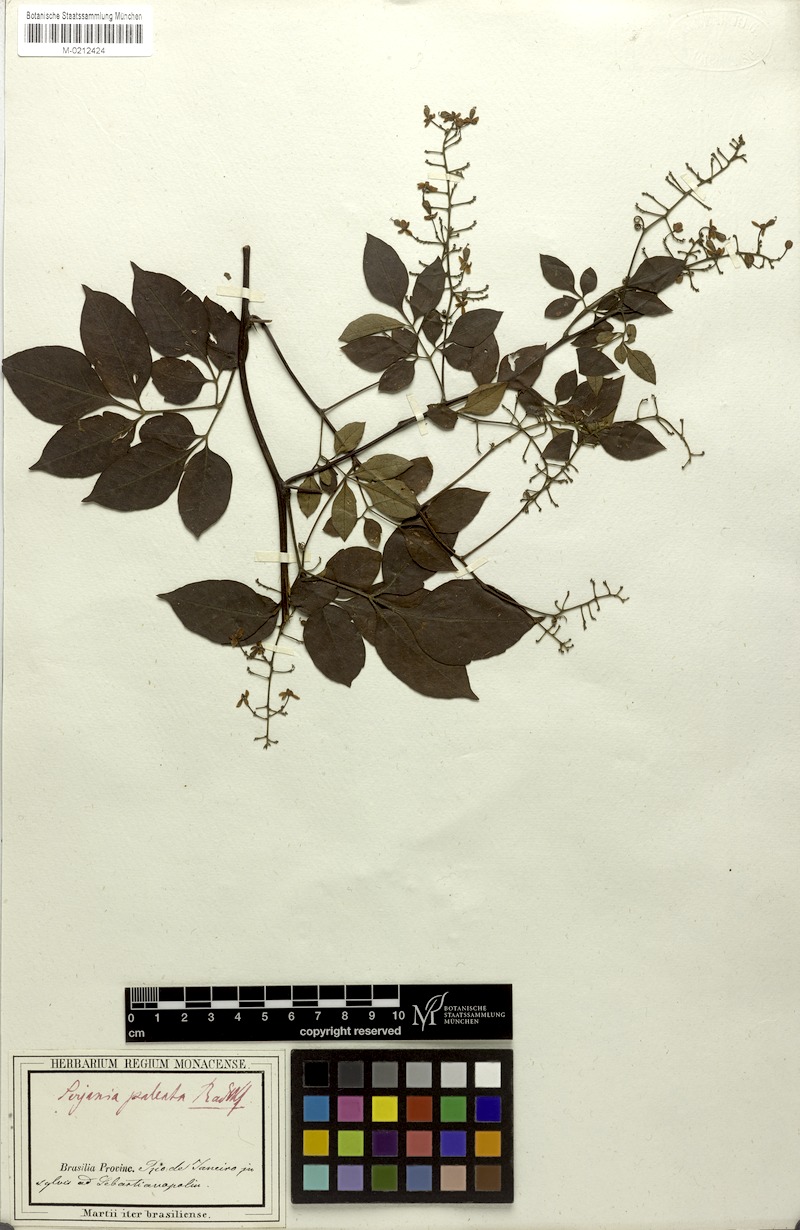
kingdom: Plantae
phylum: Tracheophyta
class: Magnoliopsida
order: Sapindales
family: Sapindaceae
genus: Serjania
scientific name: Serjania paleata
